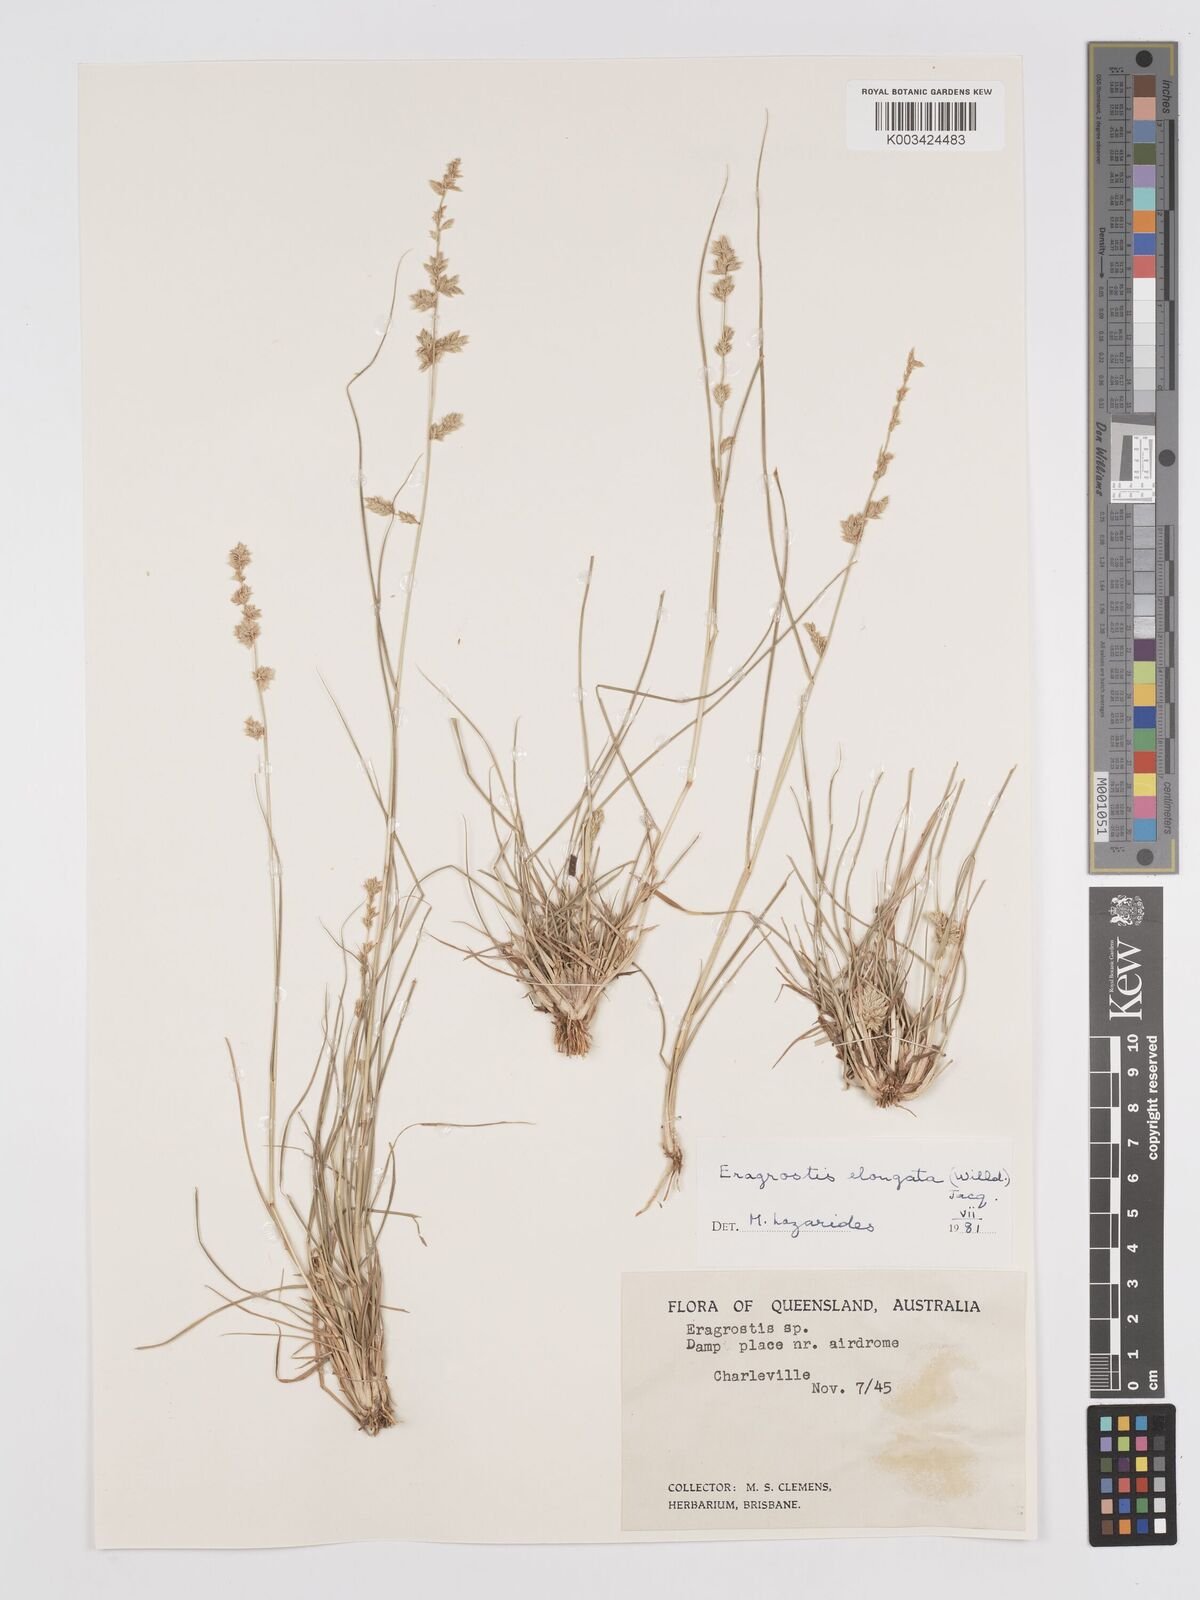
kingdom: Plantae
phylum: Tracheophyta
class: Liliopsida
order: Poales
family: Poaceae
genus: Eragrostis
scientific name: Eragrostis elongata
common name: Long lovegrass
